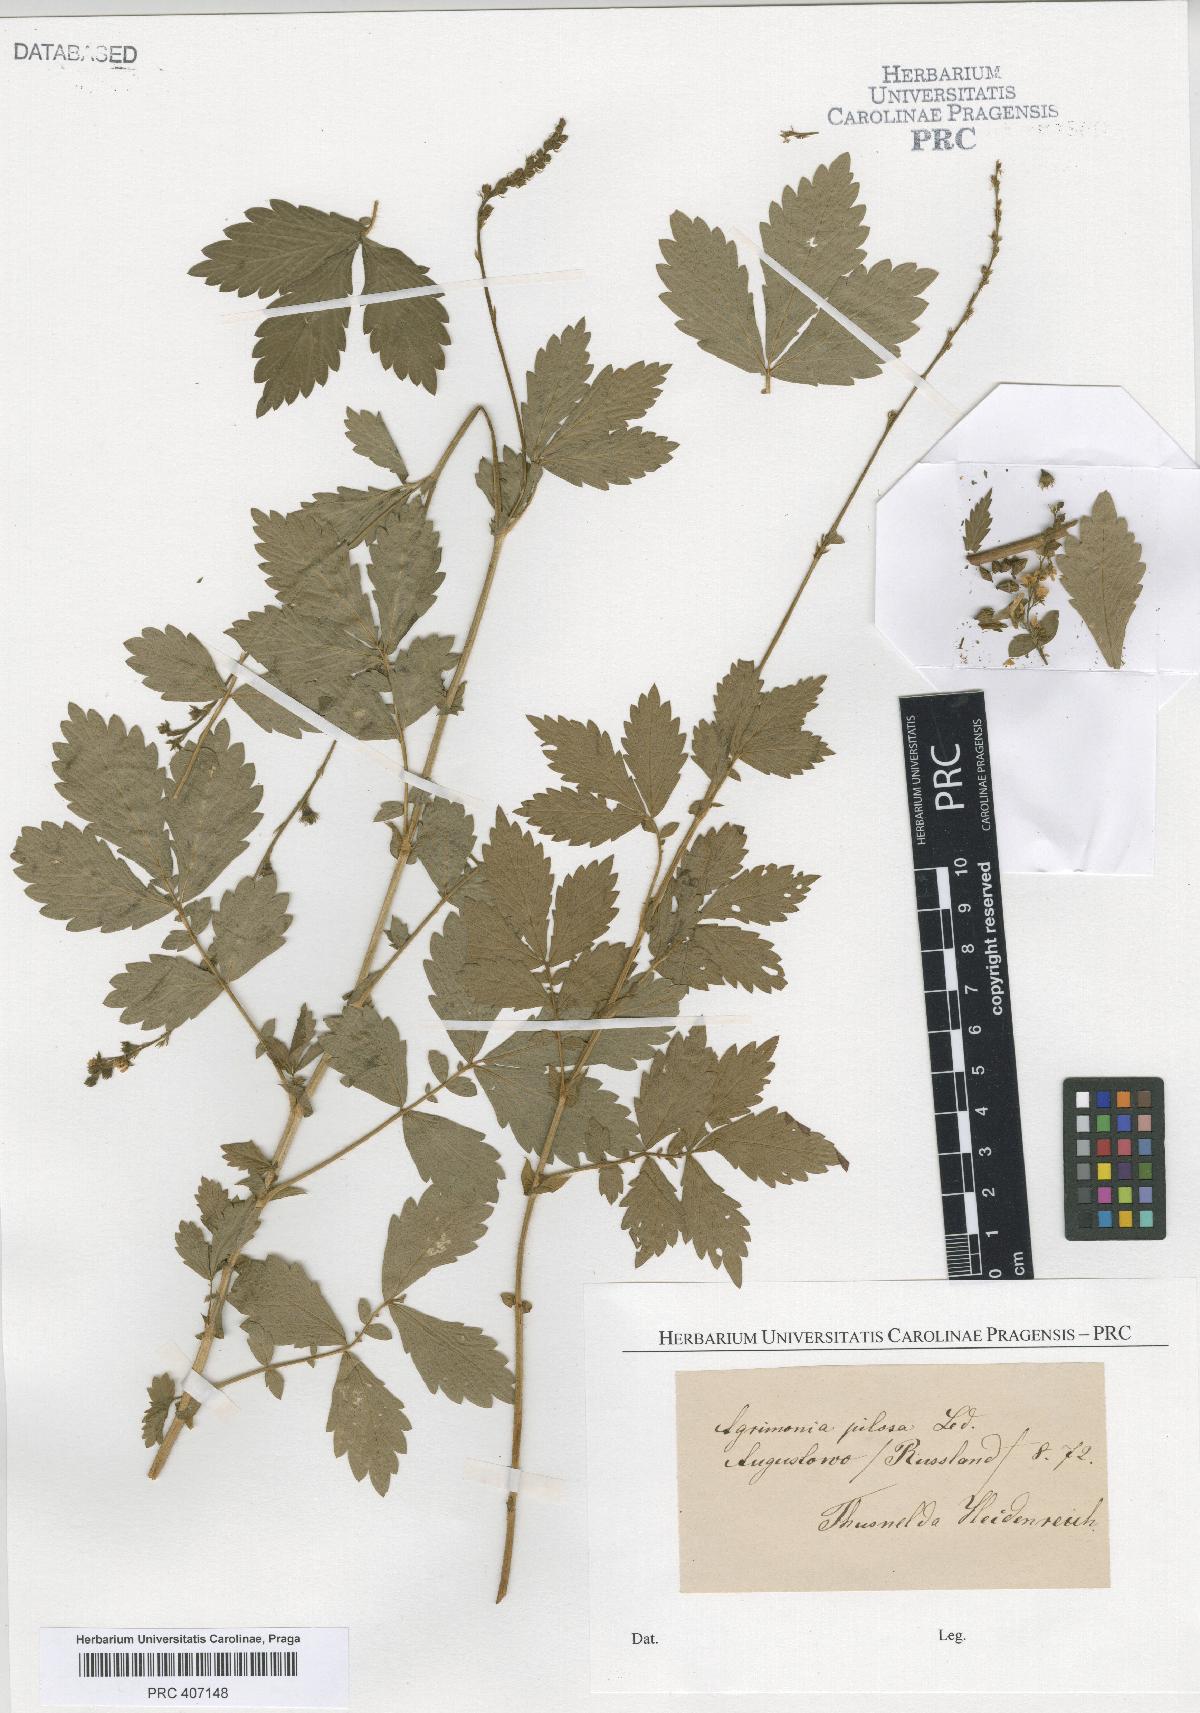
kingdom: Plantae
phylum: Tracheophyta
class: Magnoliopsida
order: Rosales
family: Rosaceae
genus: Agrimonia
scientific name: Agrimonia pilosa
